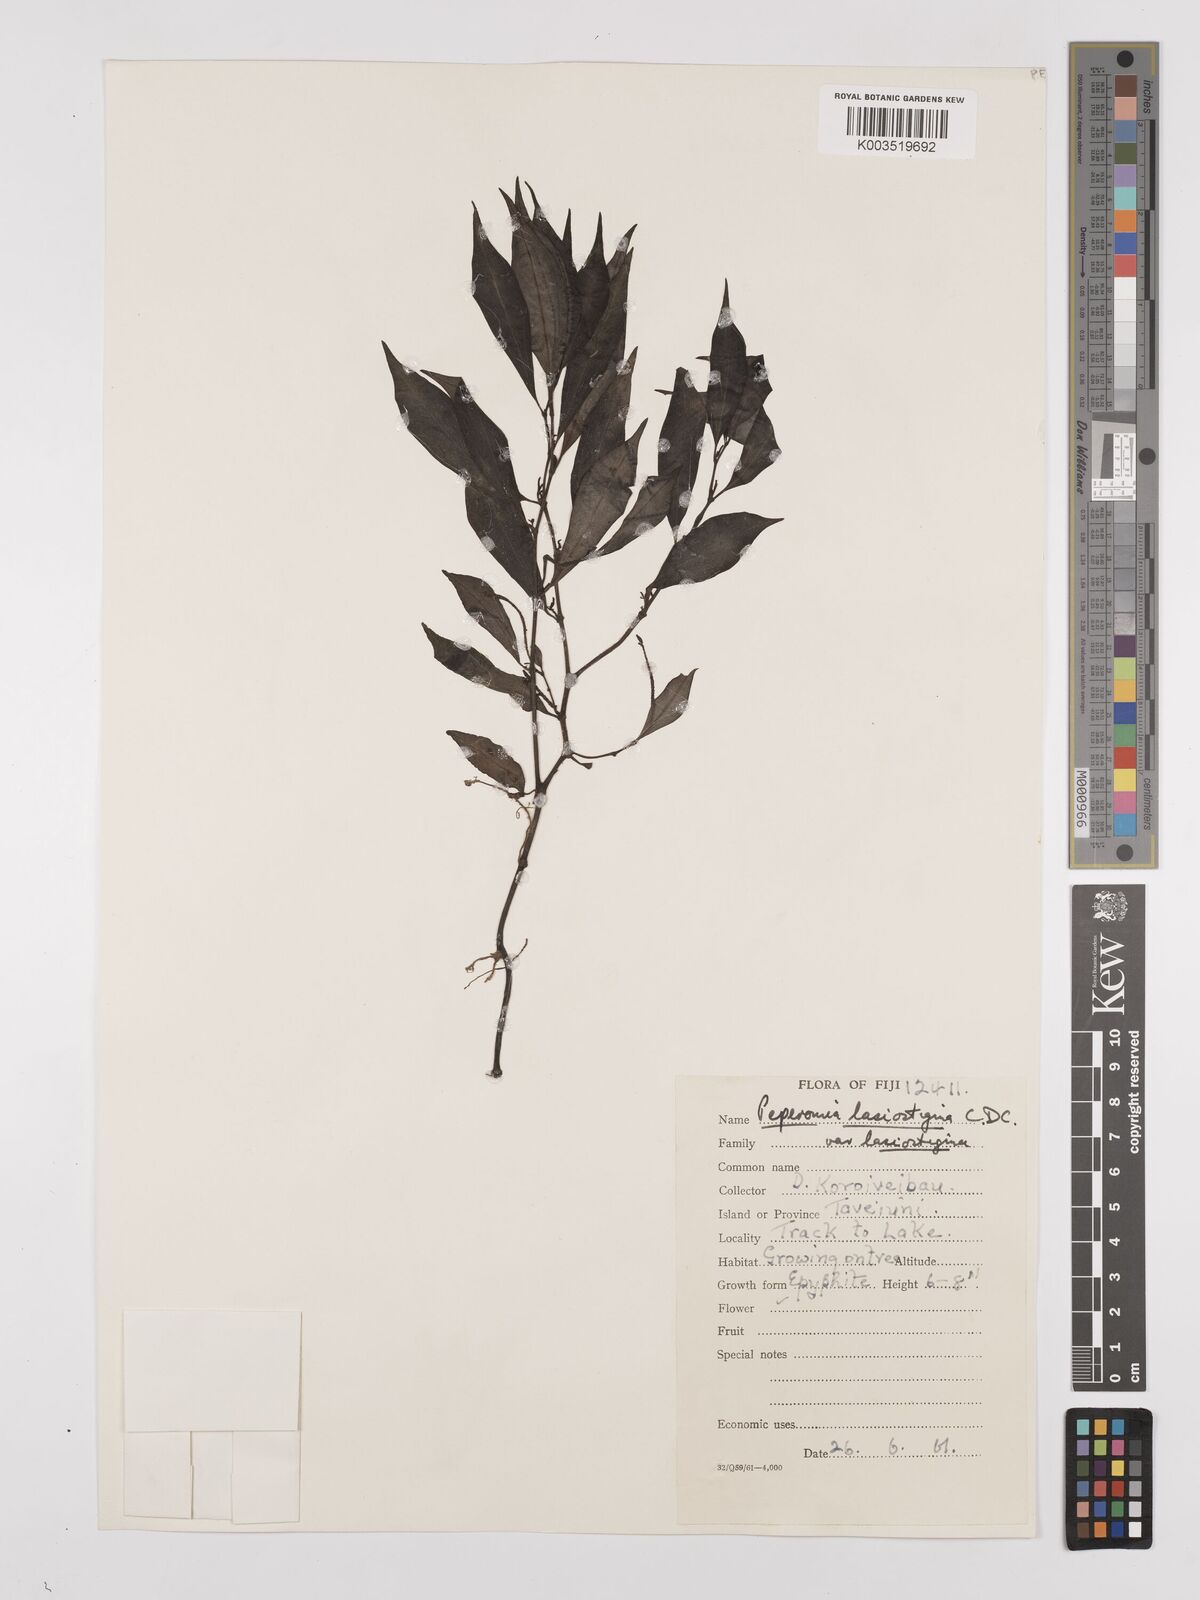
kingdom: Plantae
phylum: Tracheophyta
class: Magnoliopsida
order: Piperales
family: Piperaceae
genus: Peperomia
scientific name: Peperomia lasiostigma
